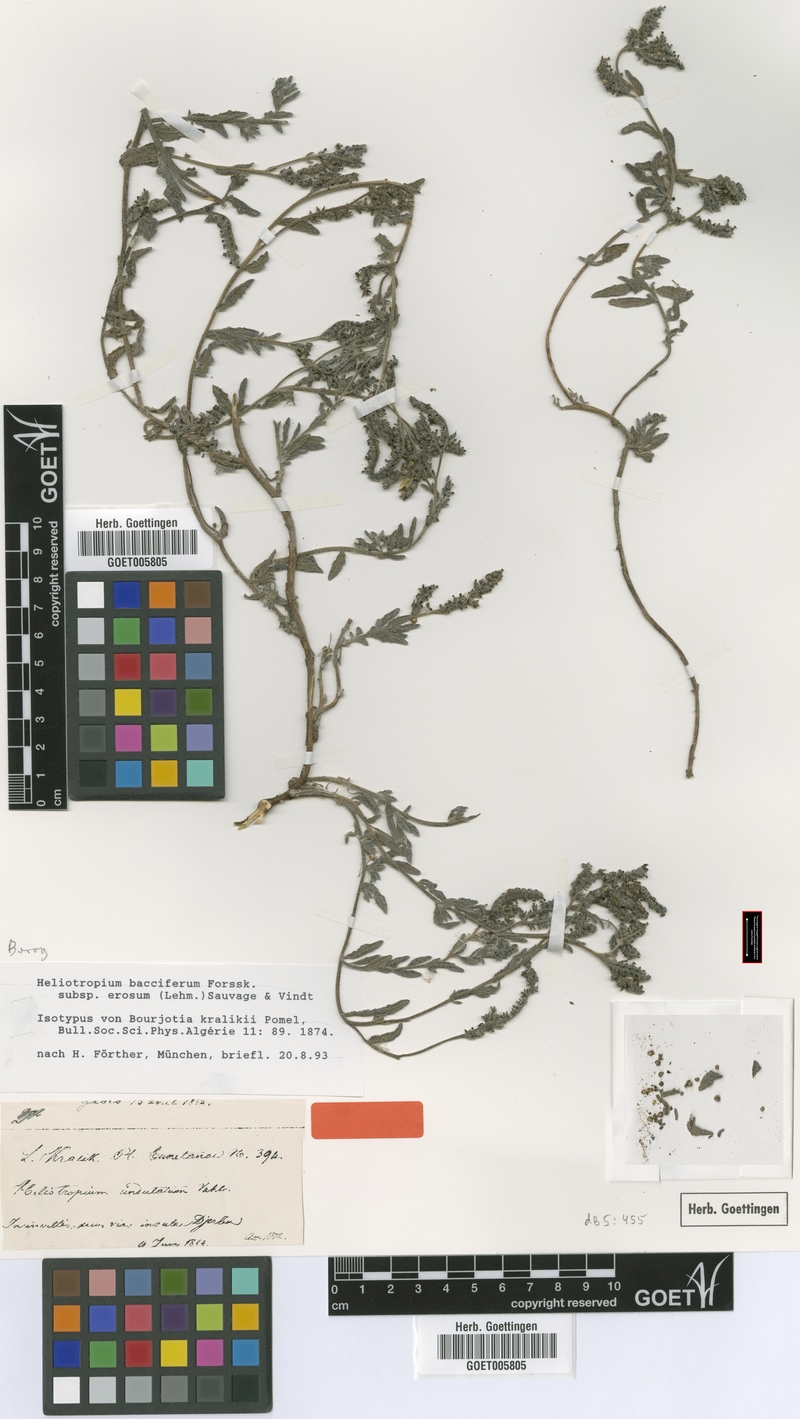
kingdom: Plantae
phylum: Tracheophyta
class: Magnoliopsida
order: Boraginales
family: Heliotropiaceae
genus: Heliotropium
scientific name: Heliotropium crispum
